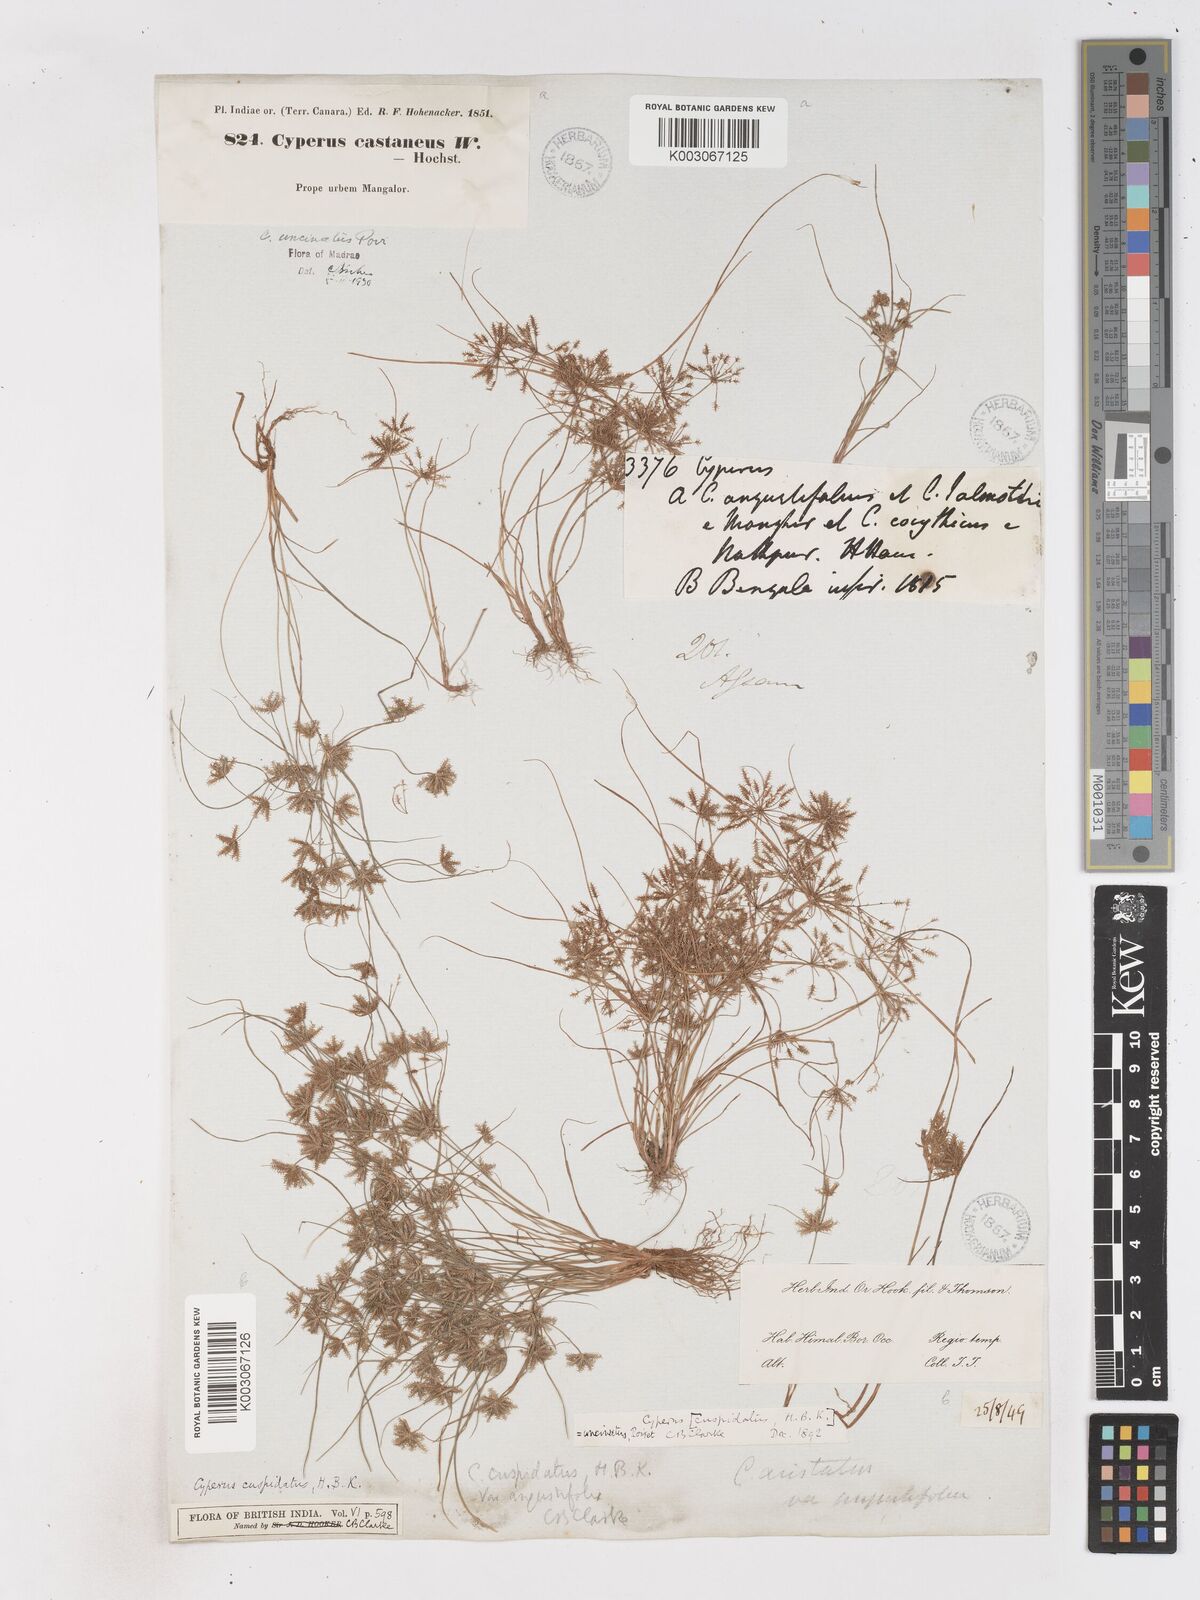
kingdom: Plantae
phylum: Tracheophyta
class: Liliopsida
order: Poales
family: Cyperaceae
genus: Cyperus
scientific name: Cyperus cuspidatus
